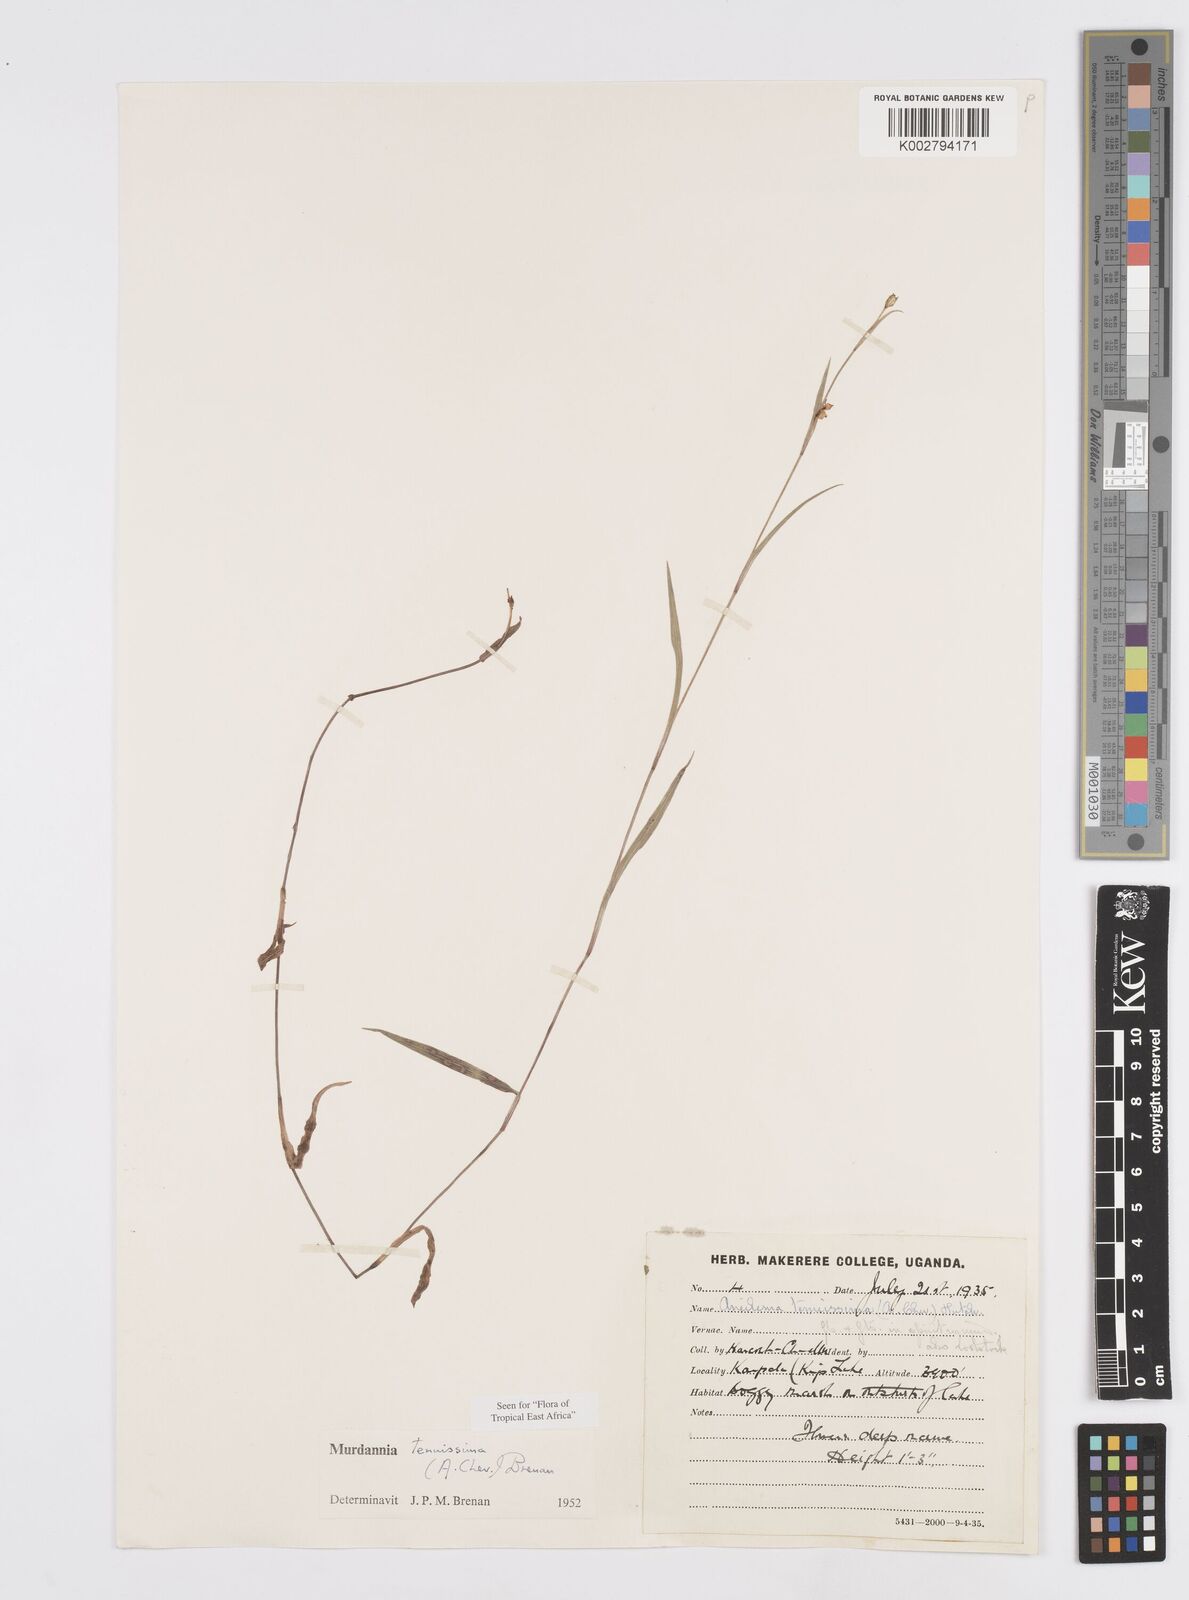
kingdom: Plantae
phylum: Tracheophyta
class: Liliopsida
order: Commelinales
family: Commelinaceae
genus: Murdannia
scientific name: Murdannia tenuissima
